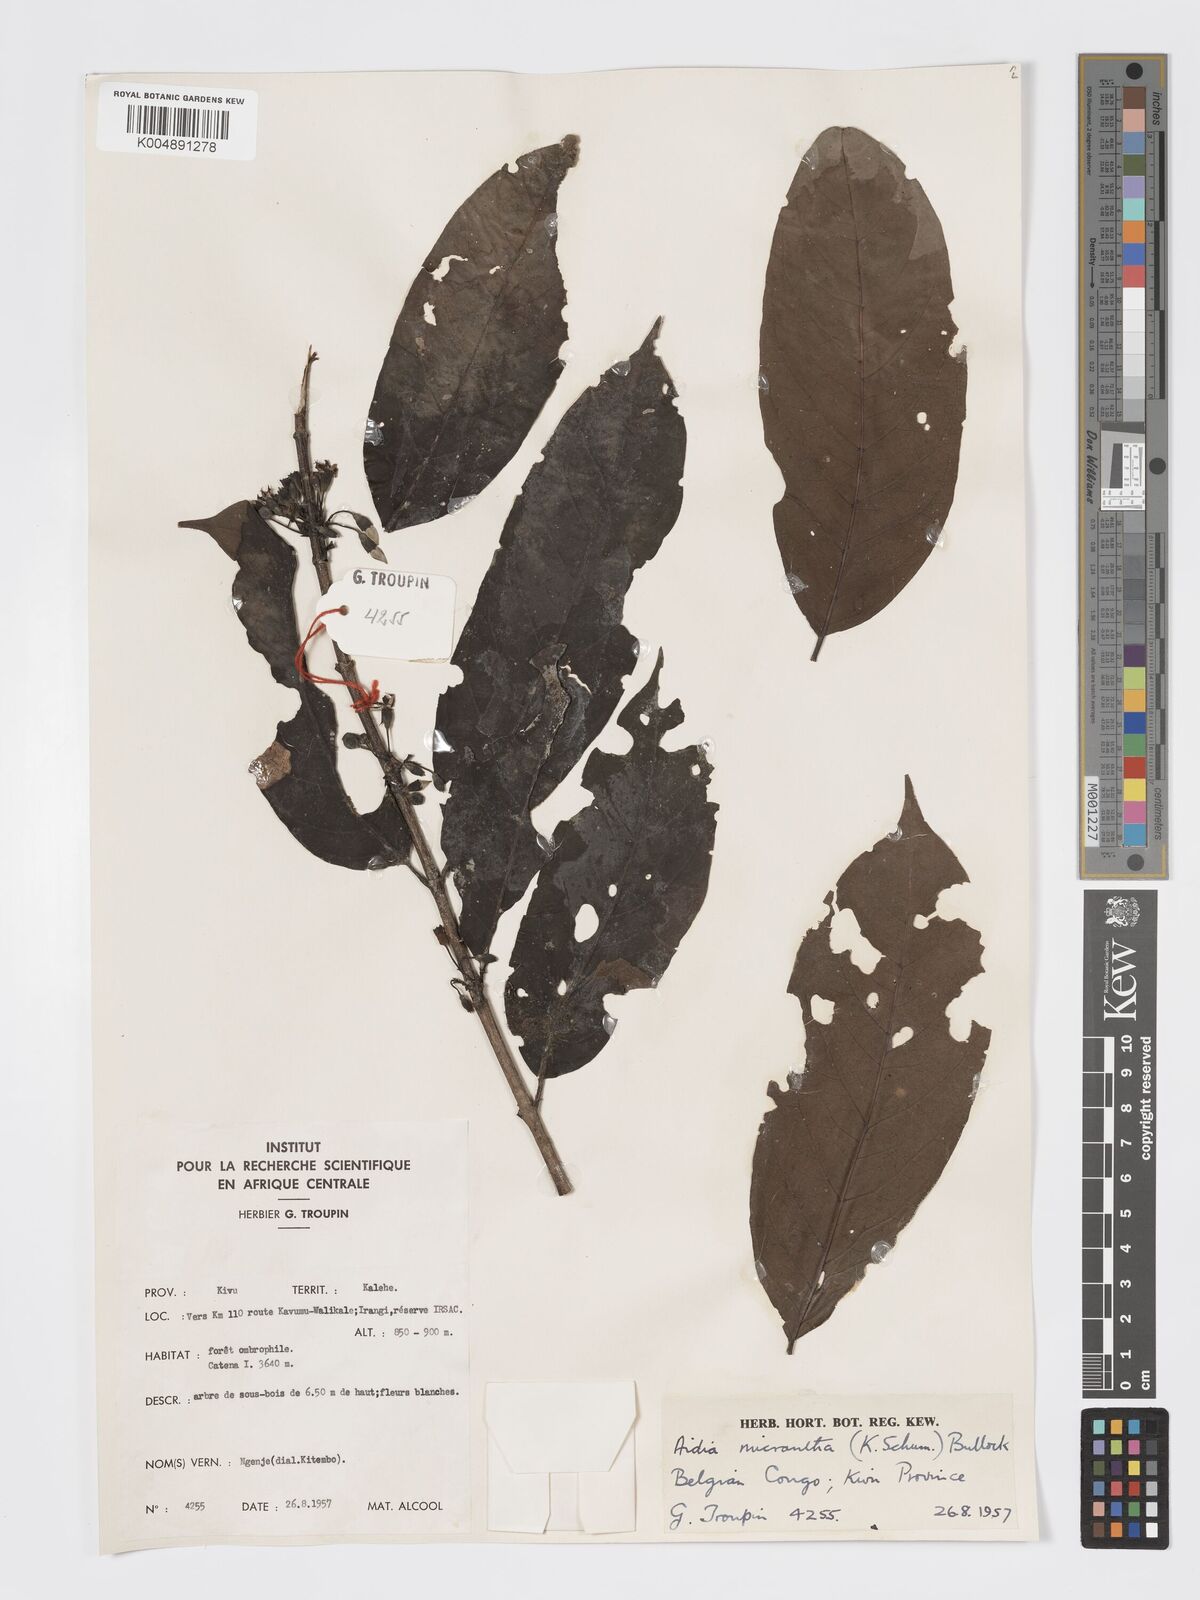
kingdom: Plantae
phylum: Tracheophyta
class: Magnoliopsida
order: Gentianales
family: Rubiaceae
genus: Aidia
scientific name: Aidia micrantha
